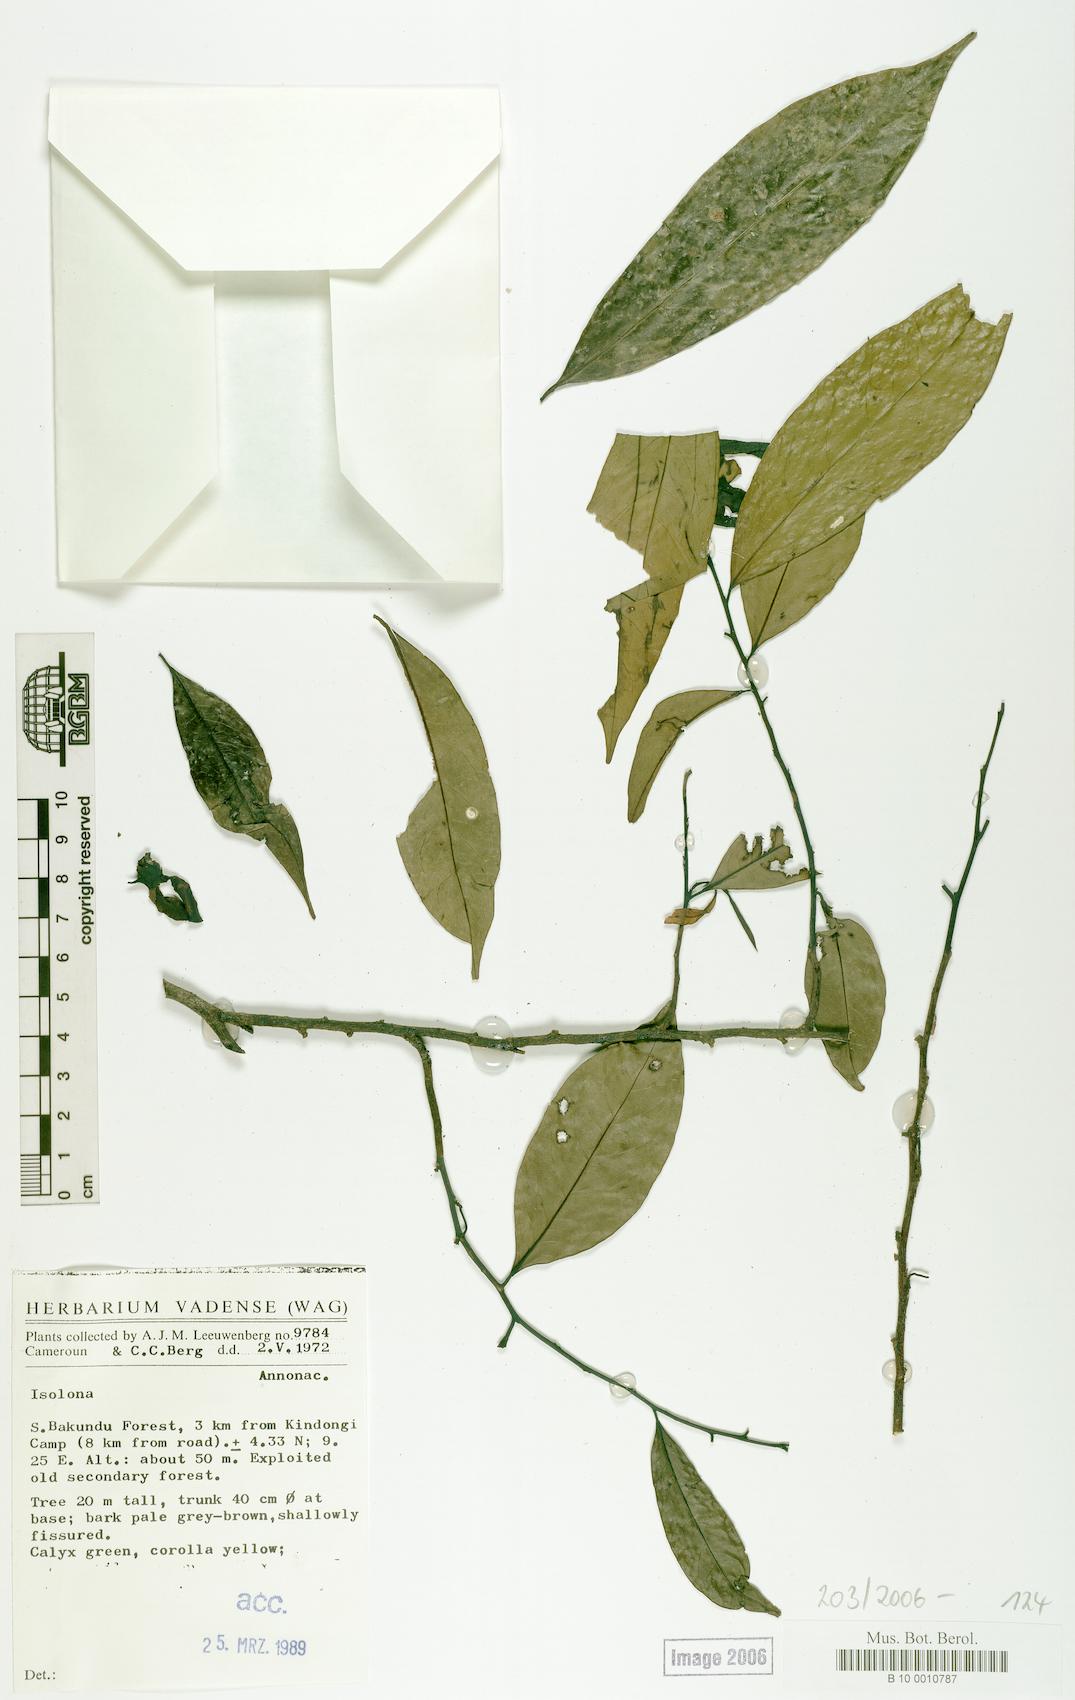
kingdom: Plantae
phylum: Tracheophyta
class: Magnoliopsida
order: Magnoliales
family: Annonaceae
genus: Isolona
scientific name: Isolona
